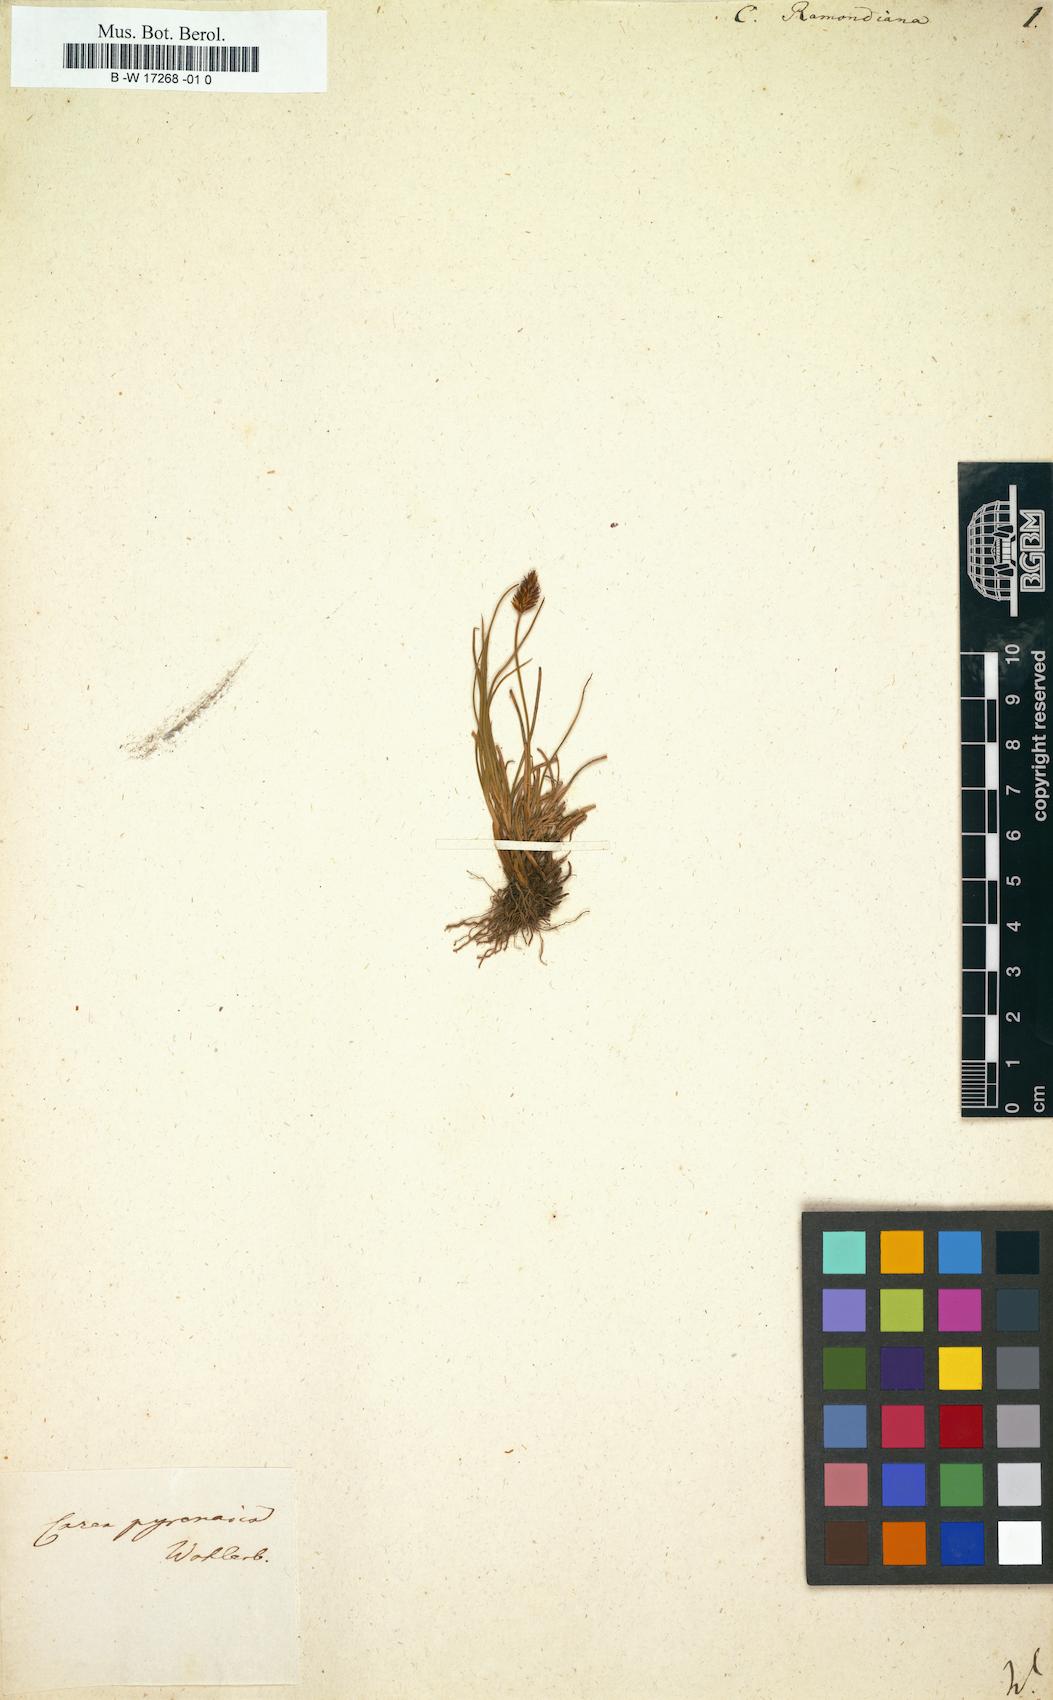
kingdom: Plantae
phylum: Tracheophyta
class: Liliopsida
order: Poales
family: Cyperaceae
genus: Carex
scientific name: Carex pyrenaica
